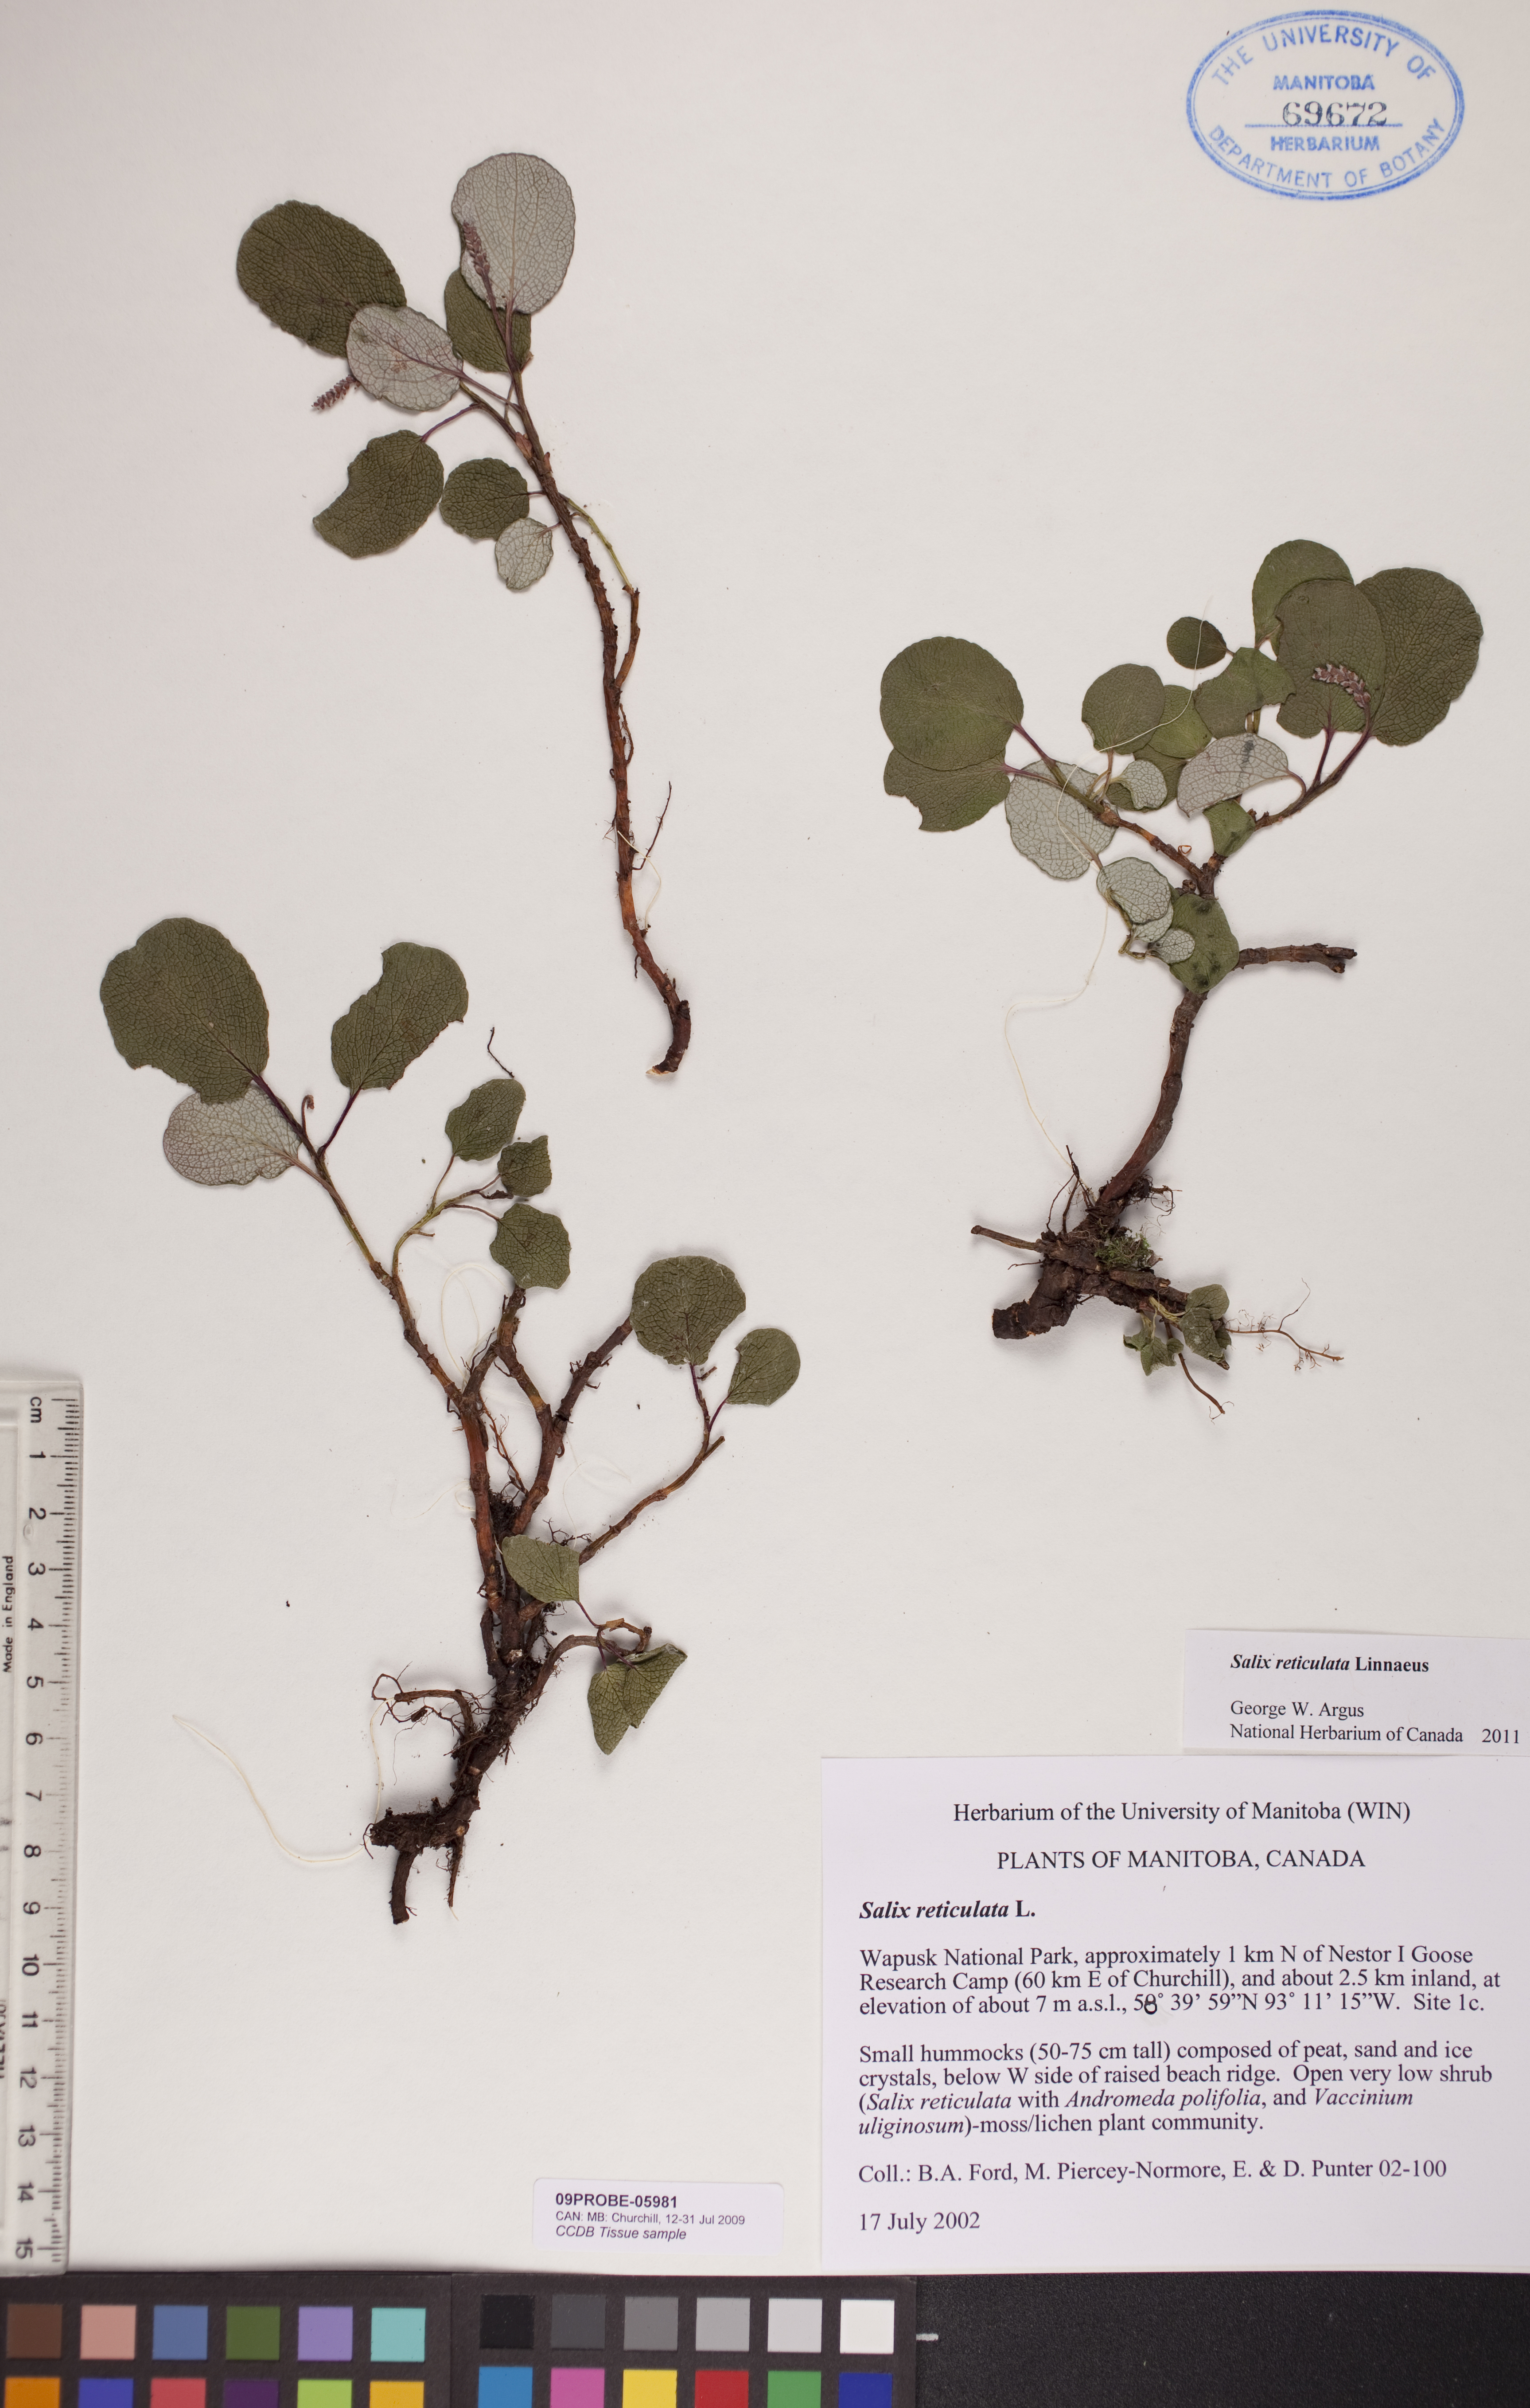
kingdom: Plantae
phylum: Tracheophyta
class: Magnoliopsida
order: Malpighiales
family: Salicaceae
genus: Salix
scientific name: Salix reticulata
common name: Net-leaved willow
